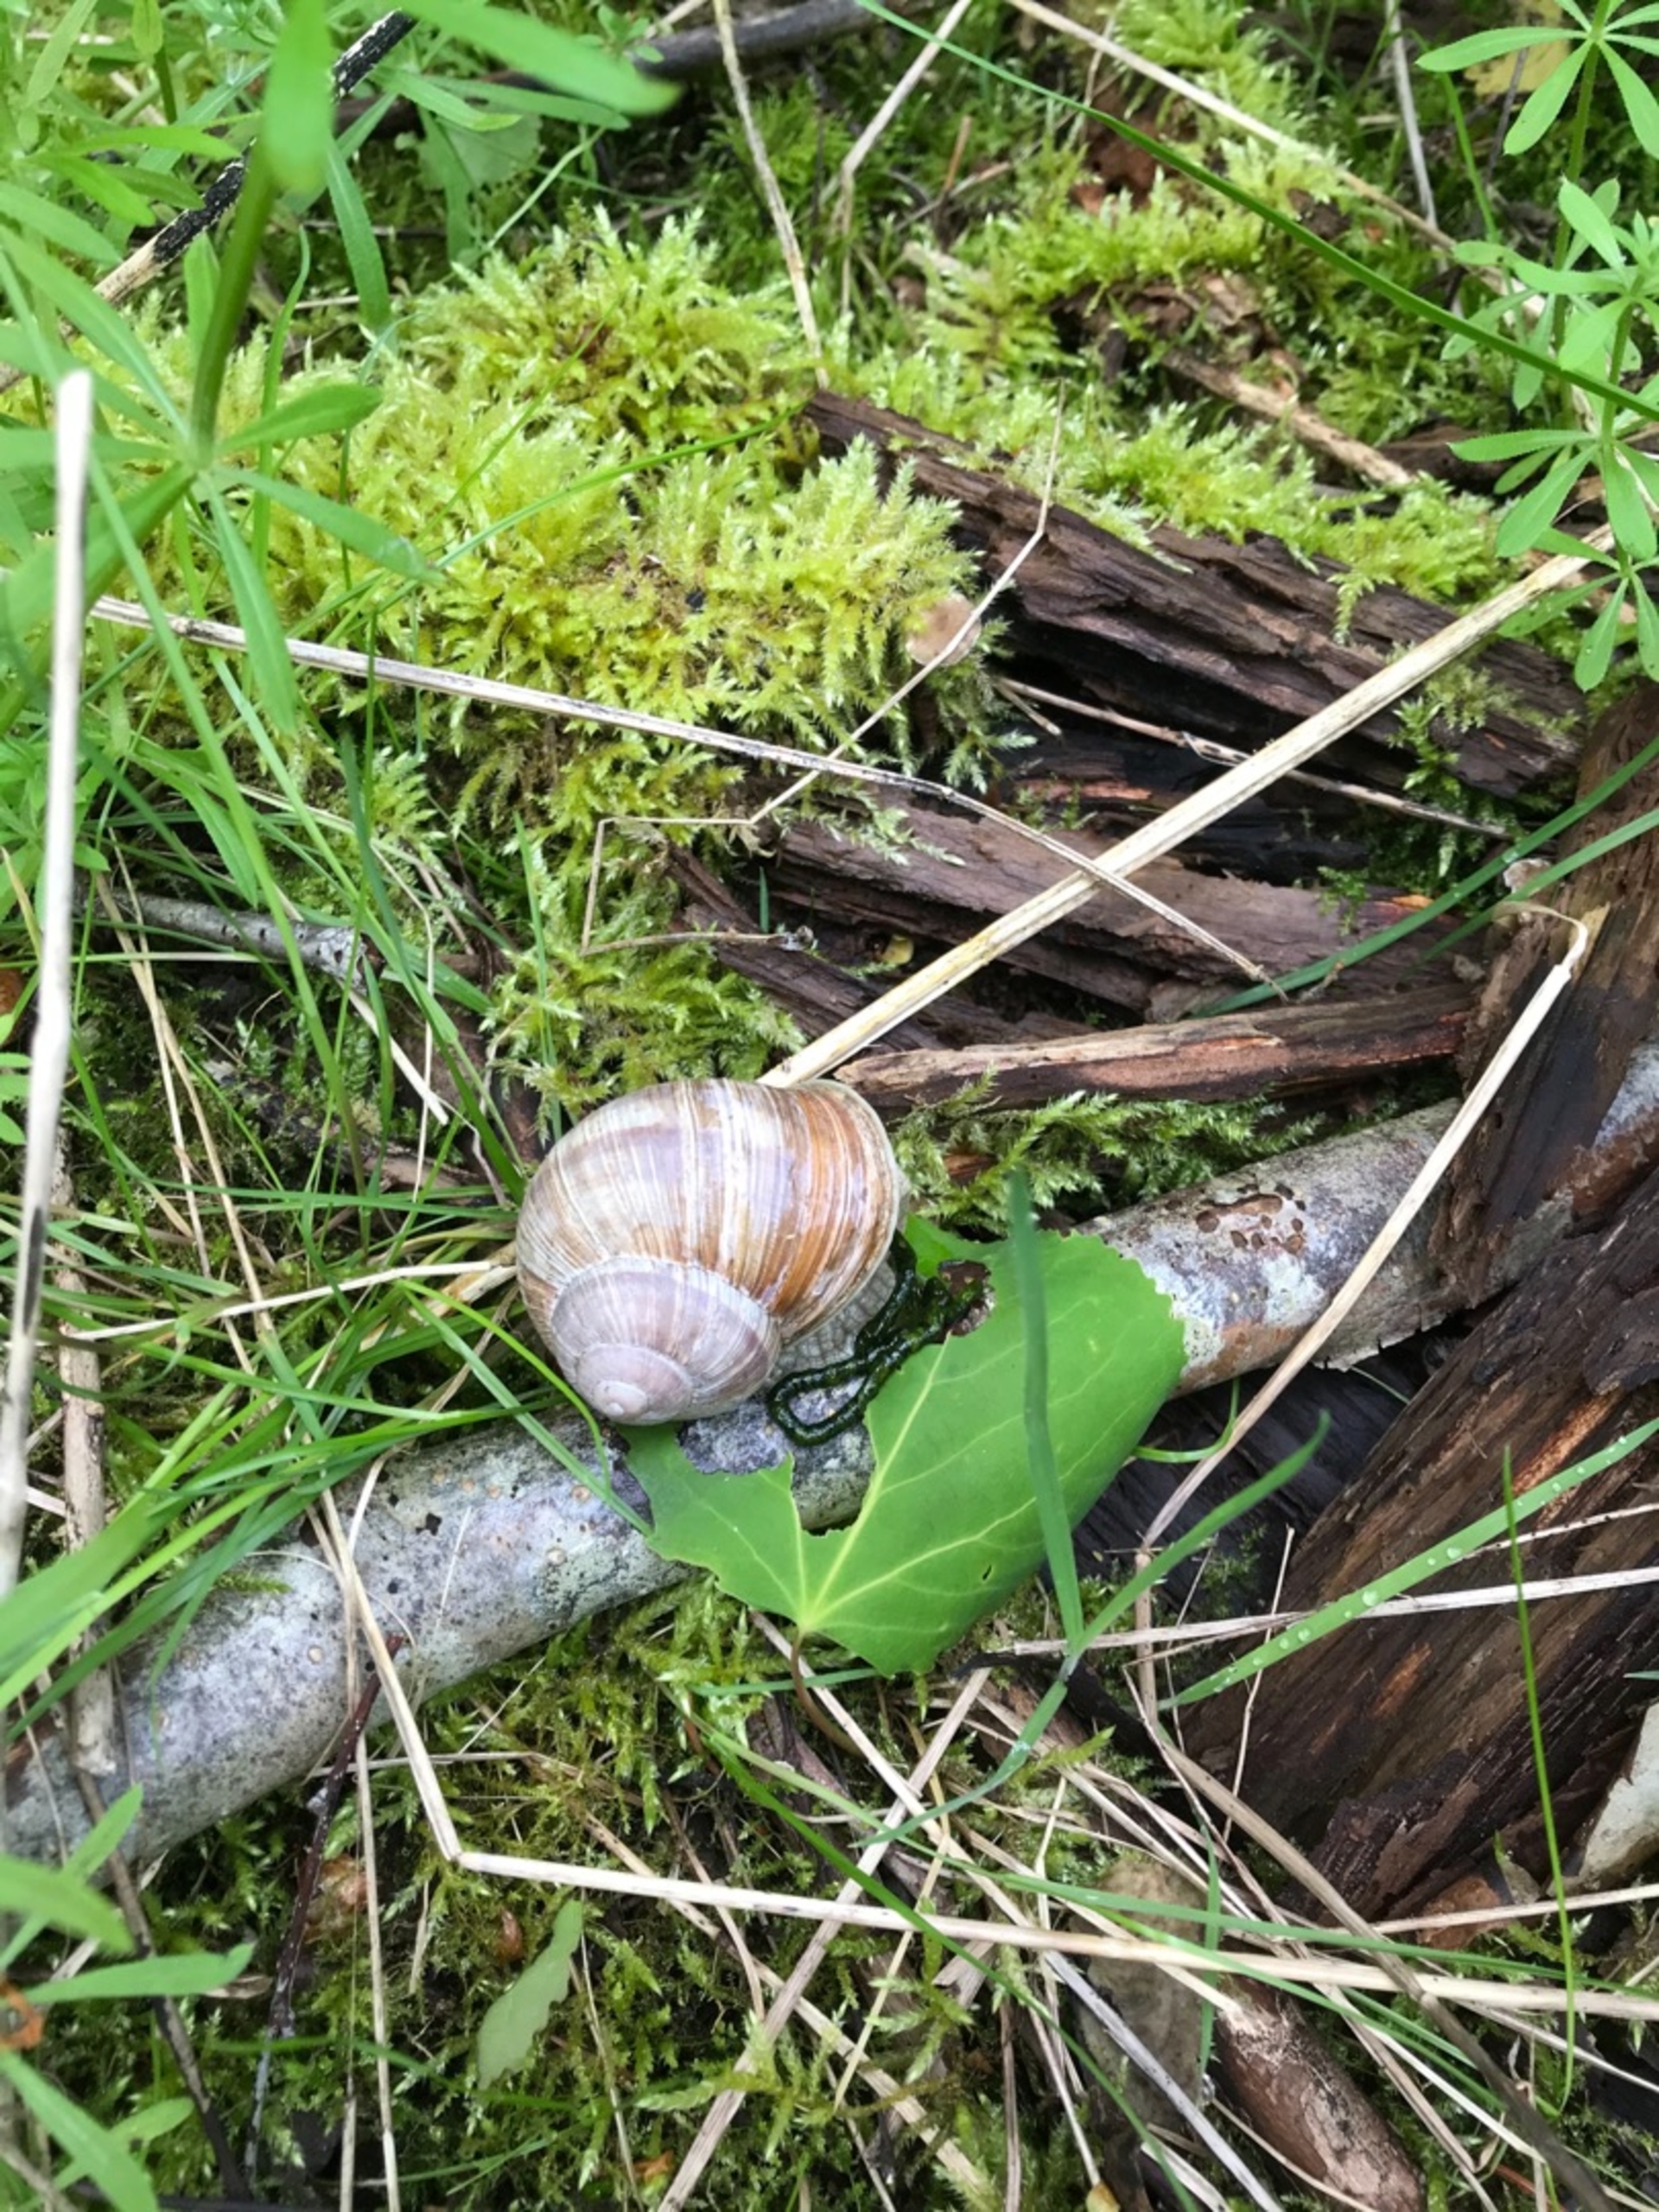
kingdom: Animalia
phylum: Mollusca
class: Gastropoda
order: Stylommatophora
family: Helicidae
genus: Helix
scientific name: Helix pomatia
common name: Vinbjergsnegl
